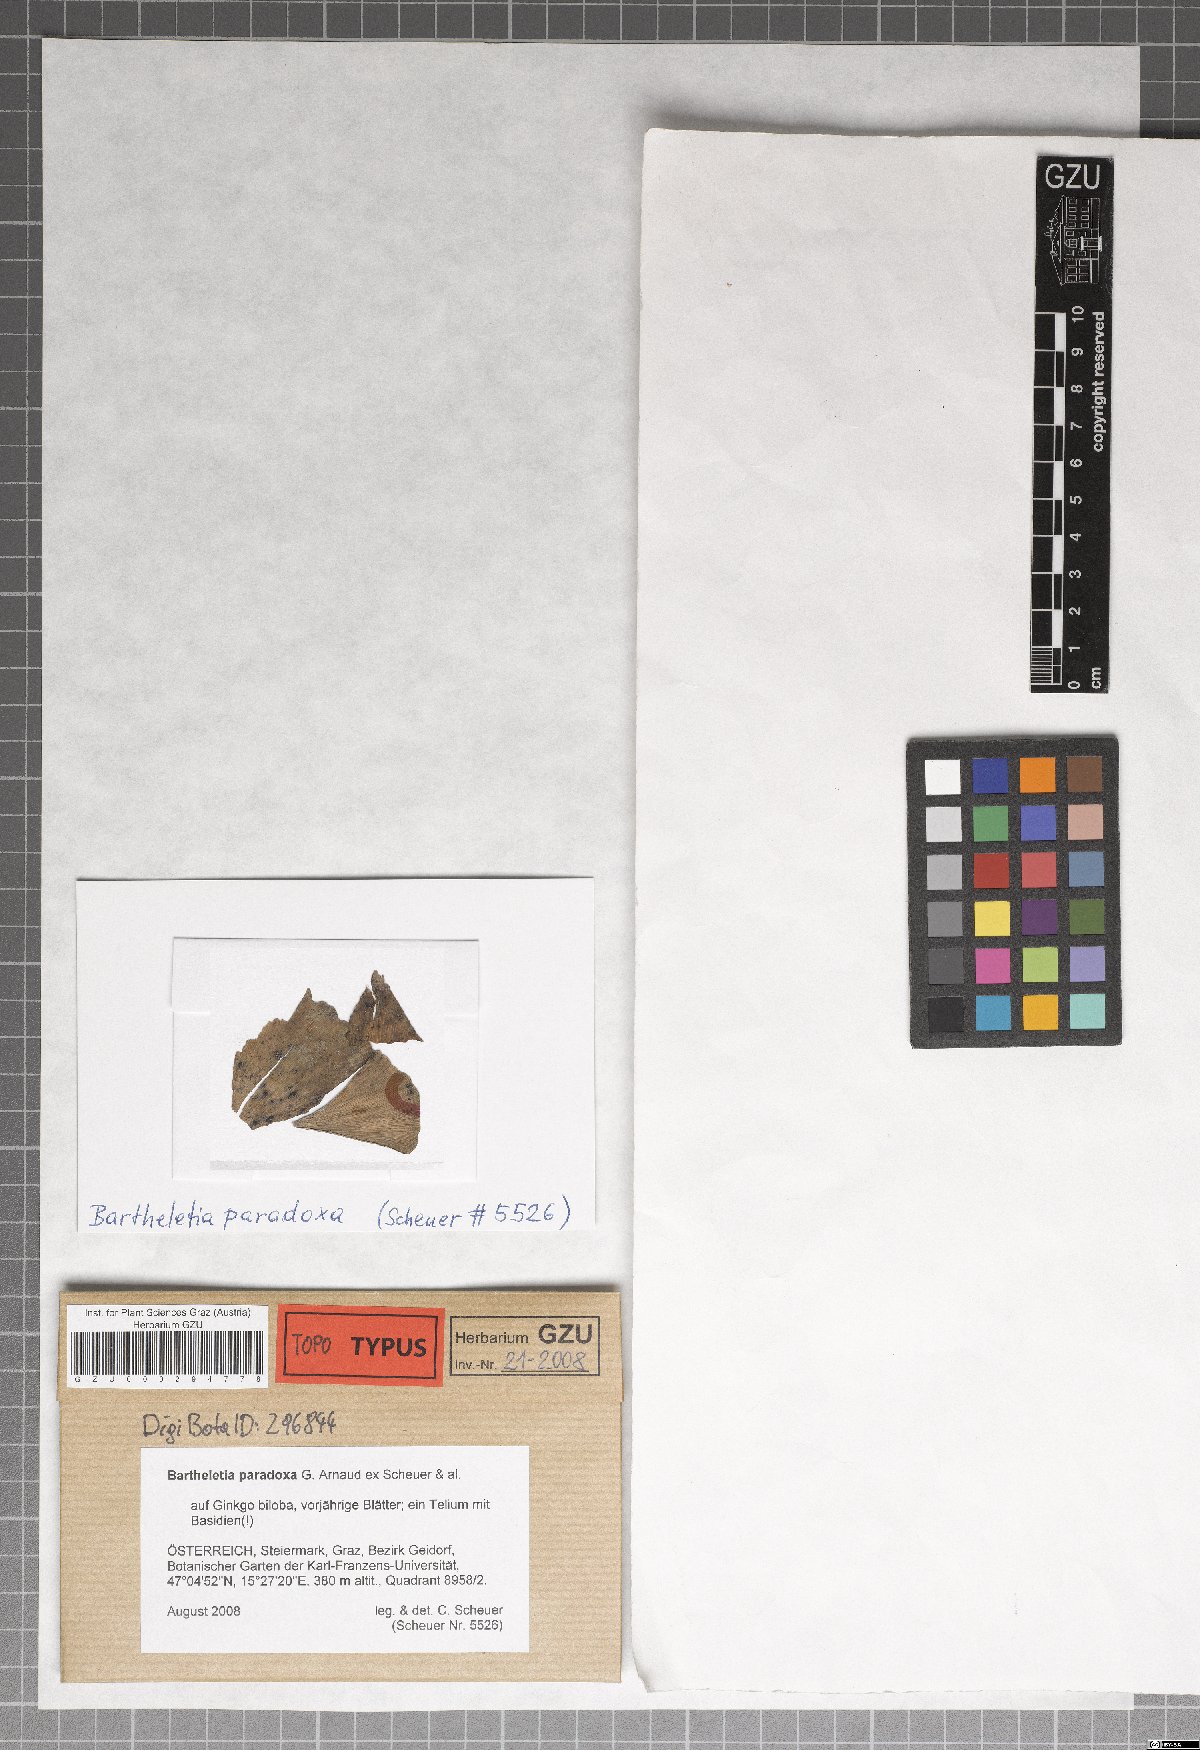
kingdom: Fungi
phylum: Basidiomycota
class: Wallemiomycetes
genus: Bartheletia
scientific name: Bartheletia paradoxa
